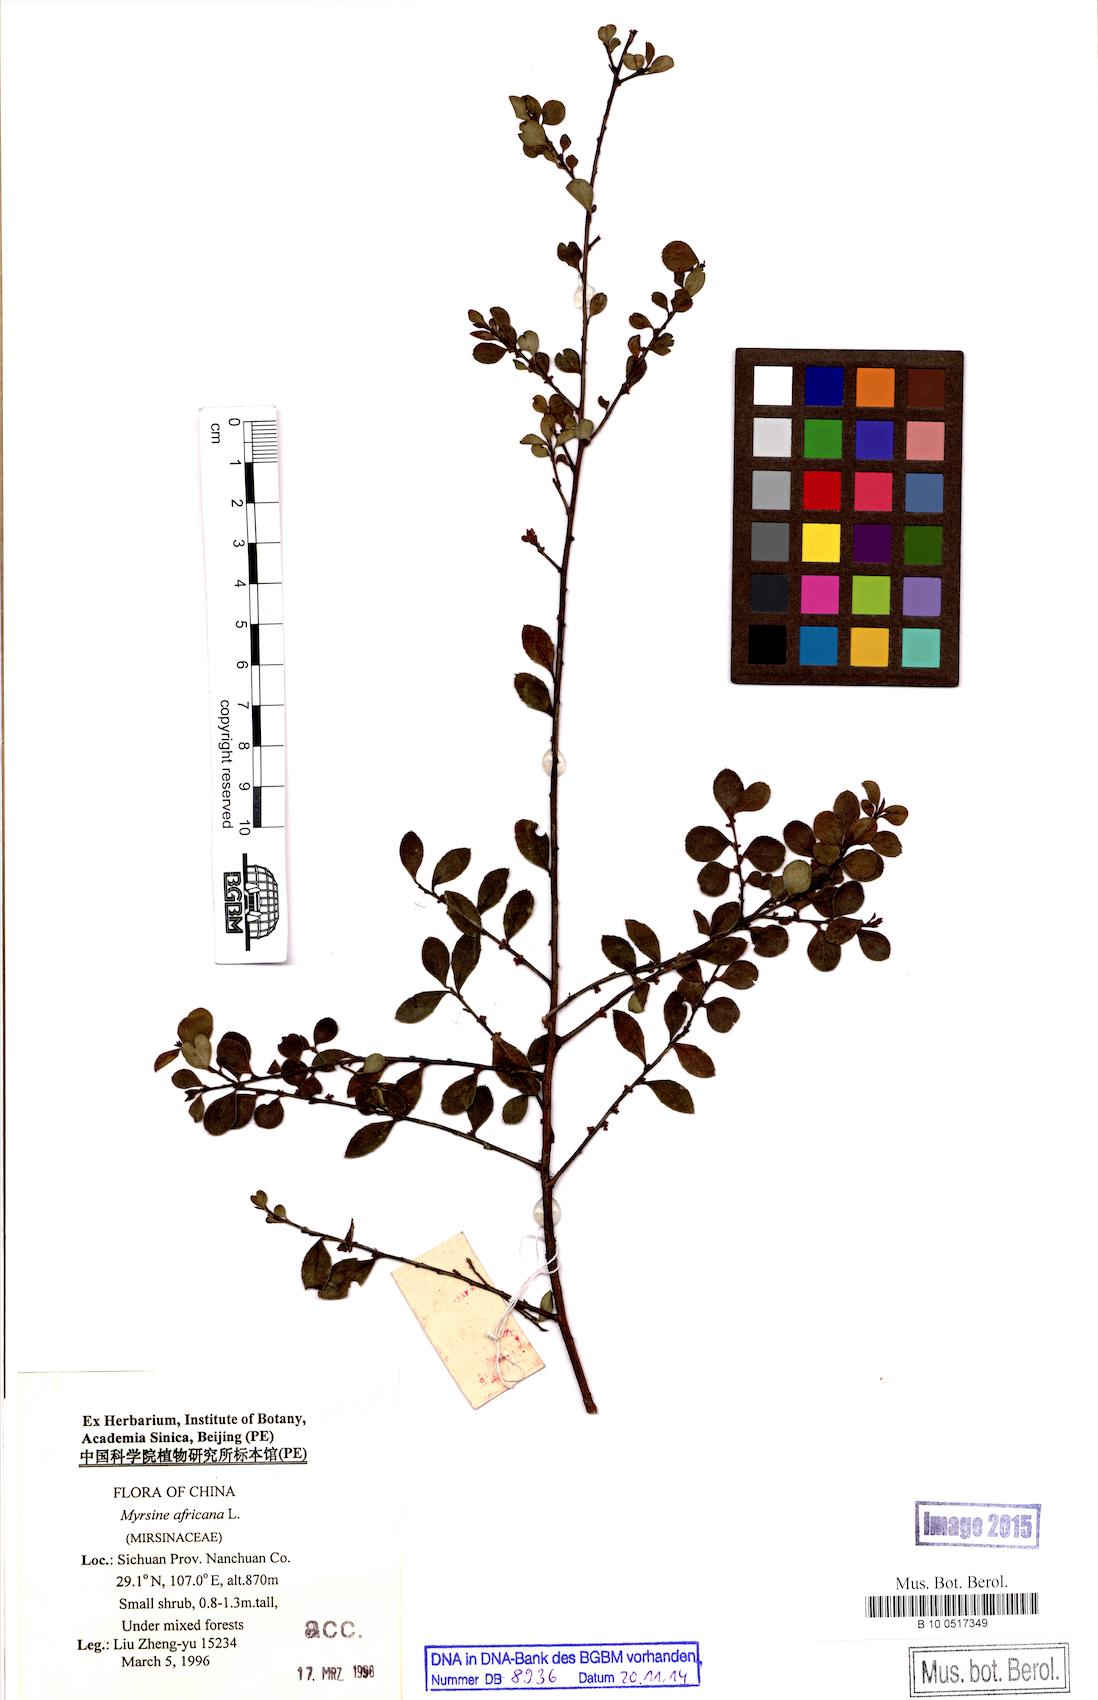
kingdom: Plantae
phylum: Tracheophyta
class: Magnoliopsida
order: Ericales
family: Primulaceae
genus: Myrsine
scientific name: Myrsine africana
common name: African-boxwood
